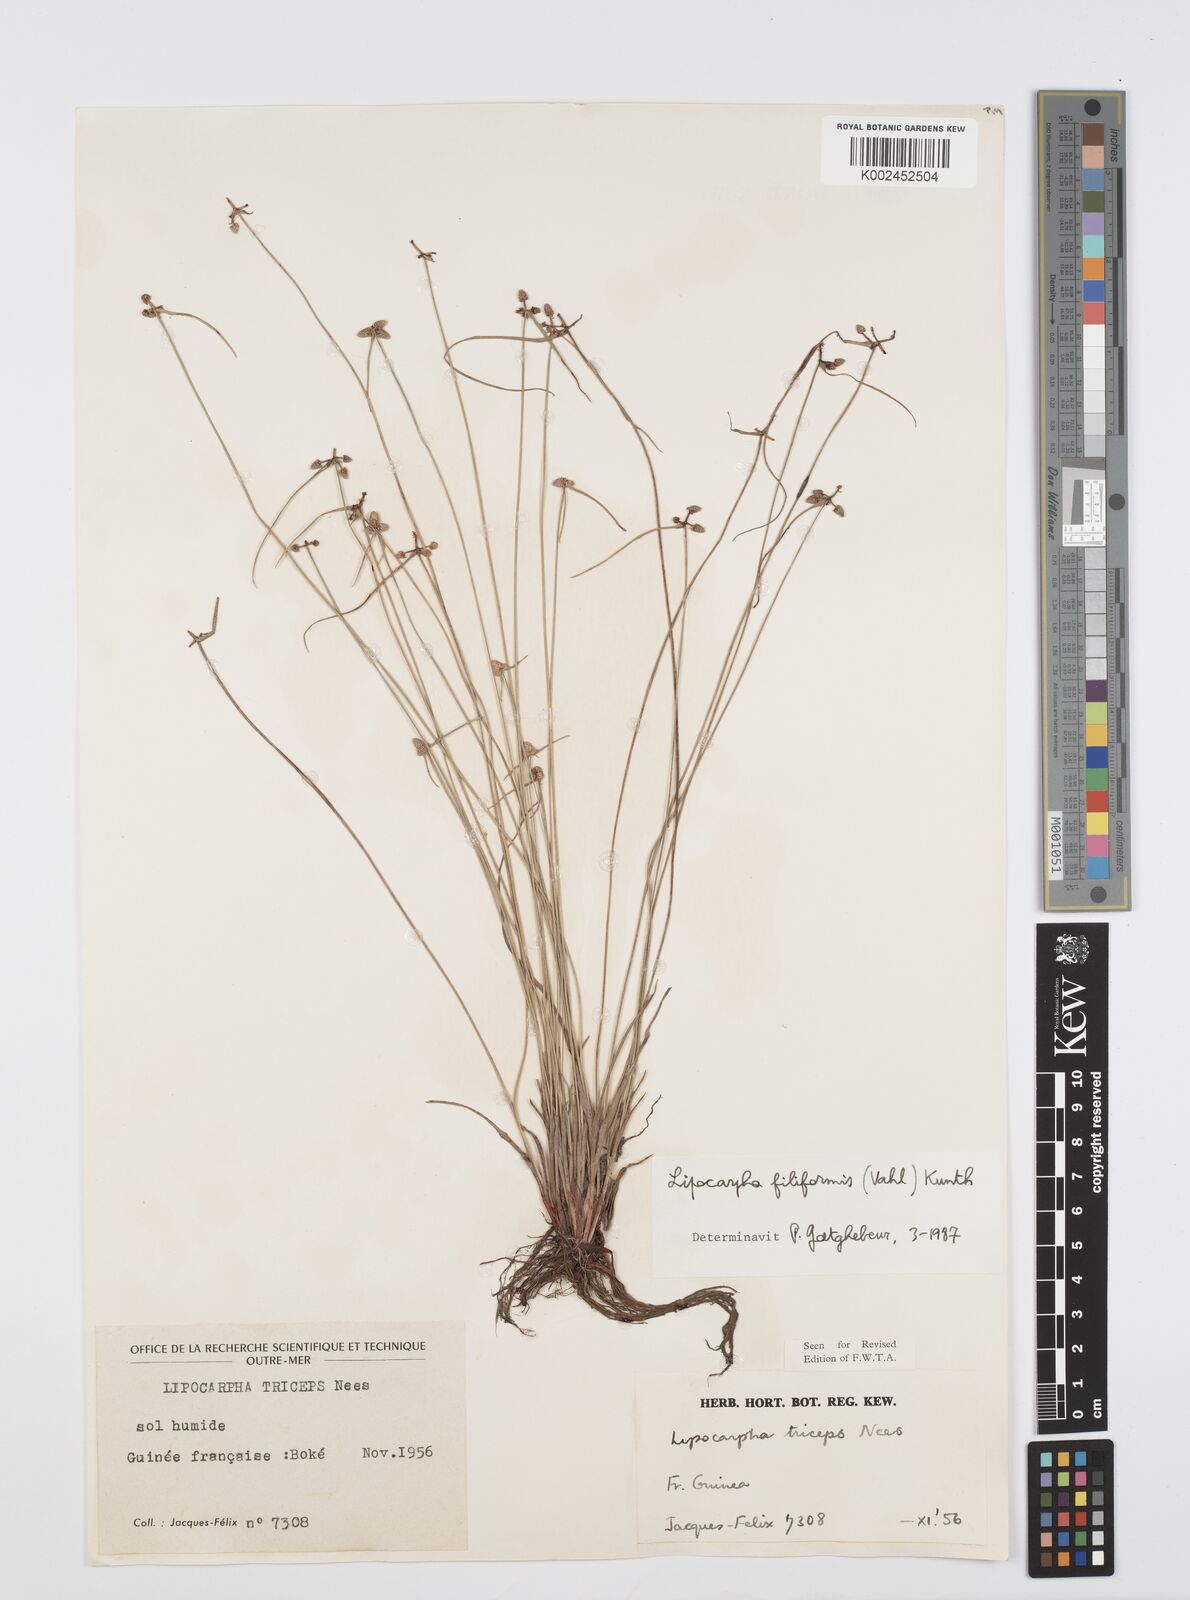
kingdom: Plantae
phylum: Tracheophyta
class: Liliopsida
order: Poales
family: Cyperaceae
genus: Cyperus
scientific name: Cyperus filiformis
